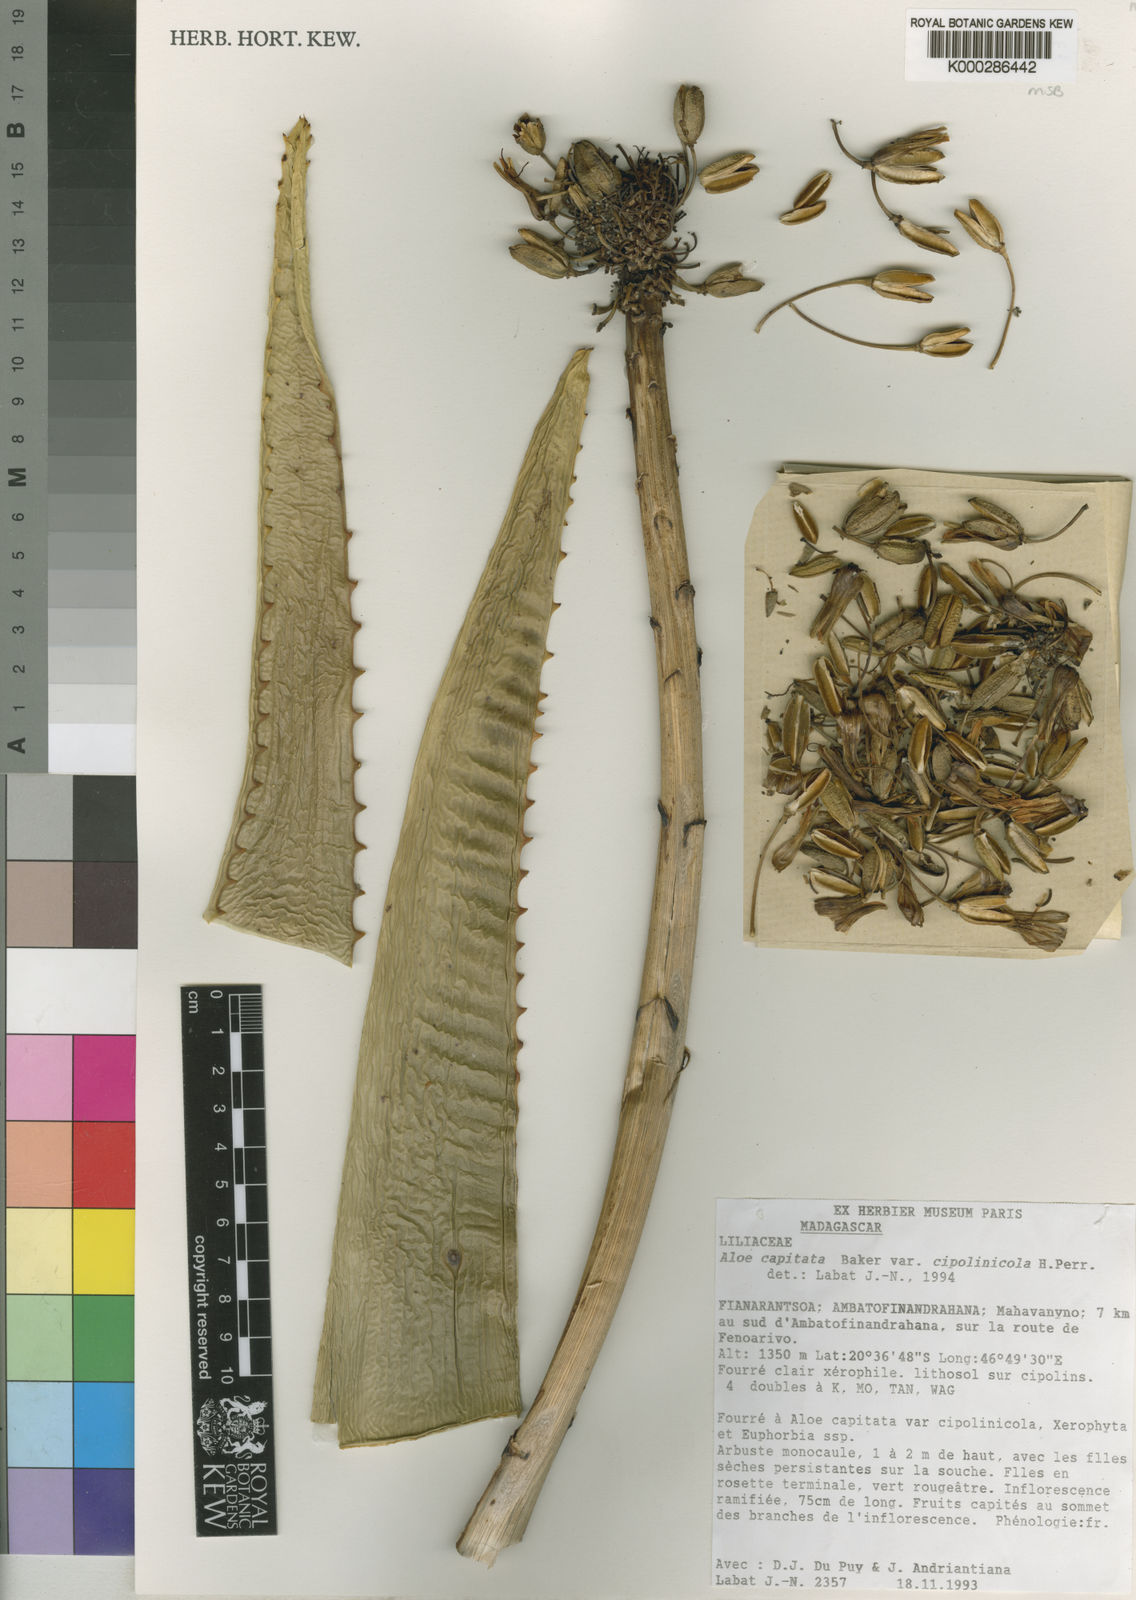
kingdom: Plantae
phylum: Tracheophyta
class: Liliopsida
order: Asparagales
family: Asphodelaceae
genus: Aloe
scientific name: Aloe capitata
